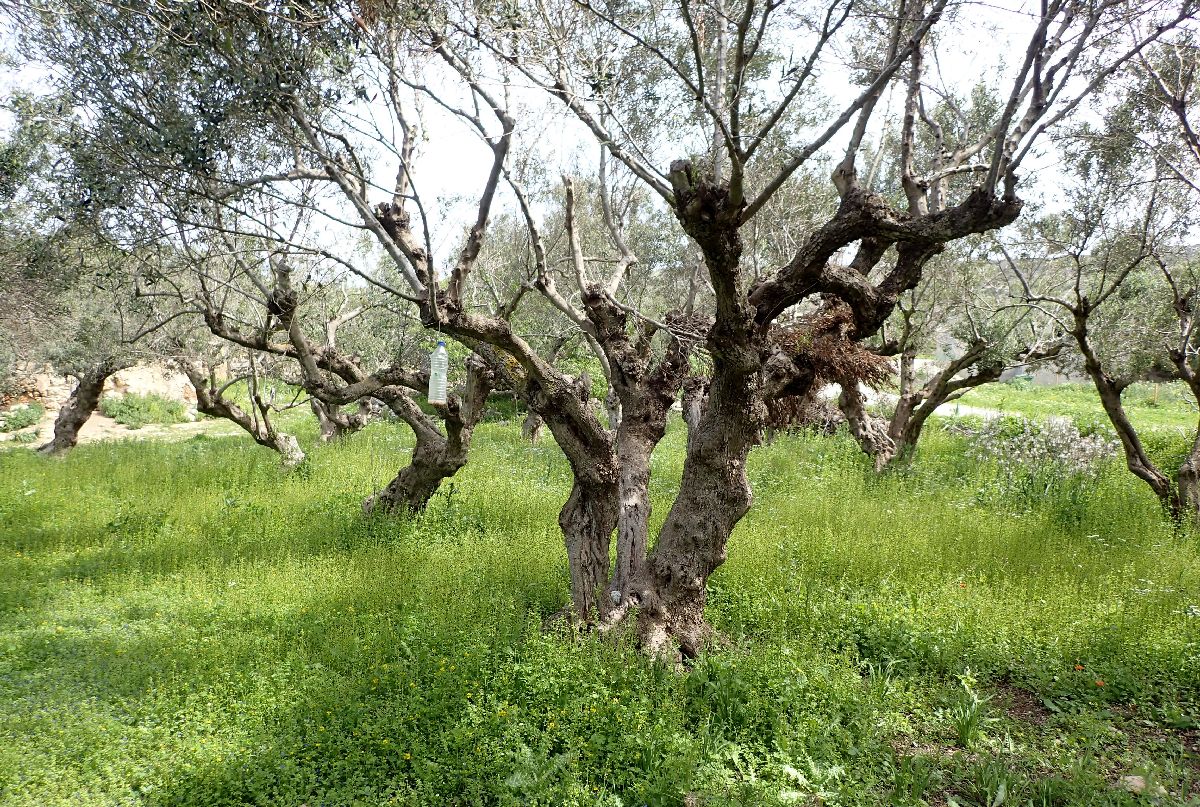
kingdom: Plantae
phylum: Tracheophyta
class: Magnoliopsida
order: Lamiales
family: Oleaceae
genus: Olea
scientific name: Olea europaea
